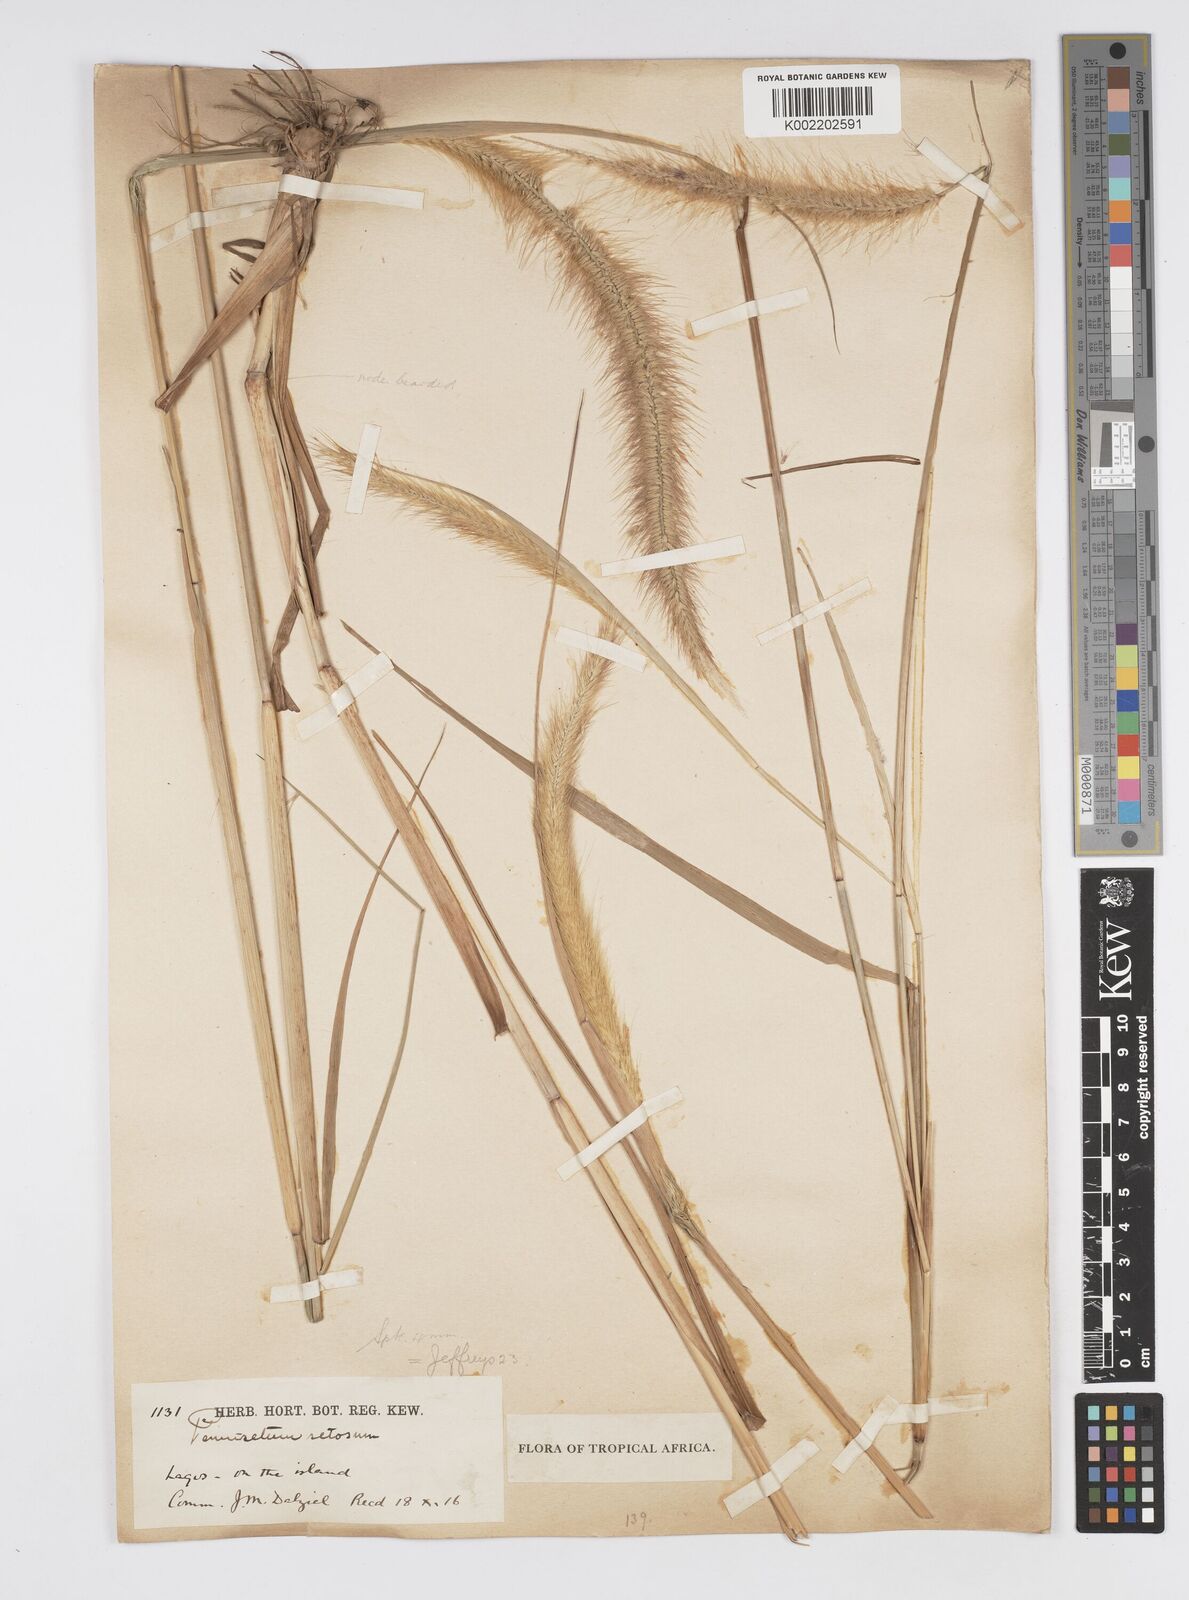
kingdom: Plantae
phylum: Tracheophyta
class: Liliopsida
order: Poales
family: Poaceae
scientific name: Poaceae
